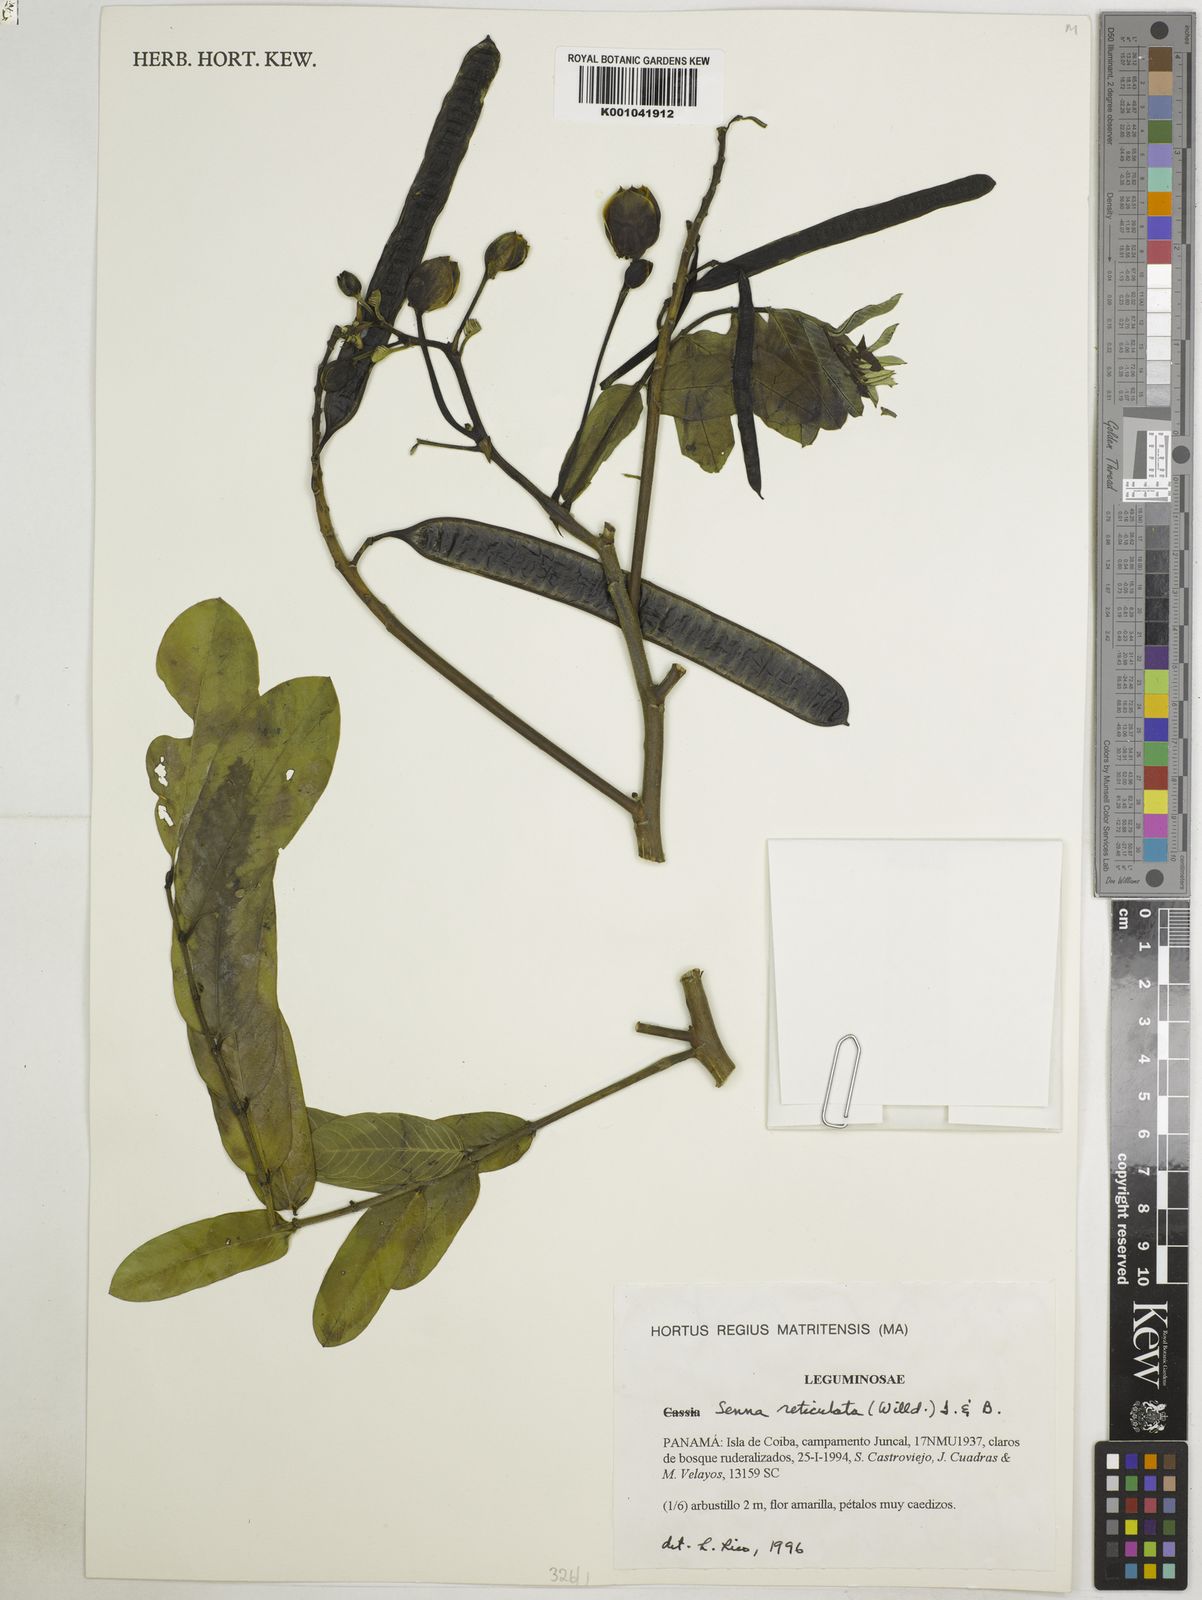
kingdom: Plantae
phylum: Tracheophyta
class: Magnoliopsida
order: Fabales
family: Fabaceae
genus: Senna
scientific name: Senna reticulata
